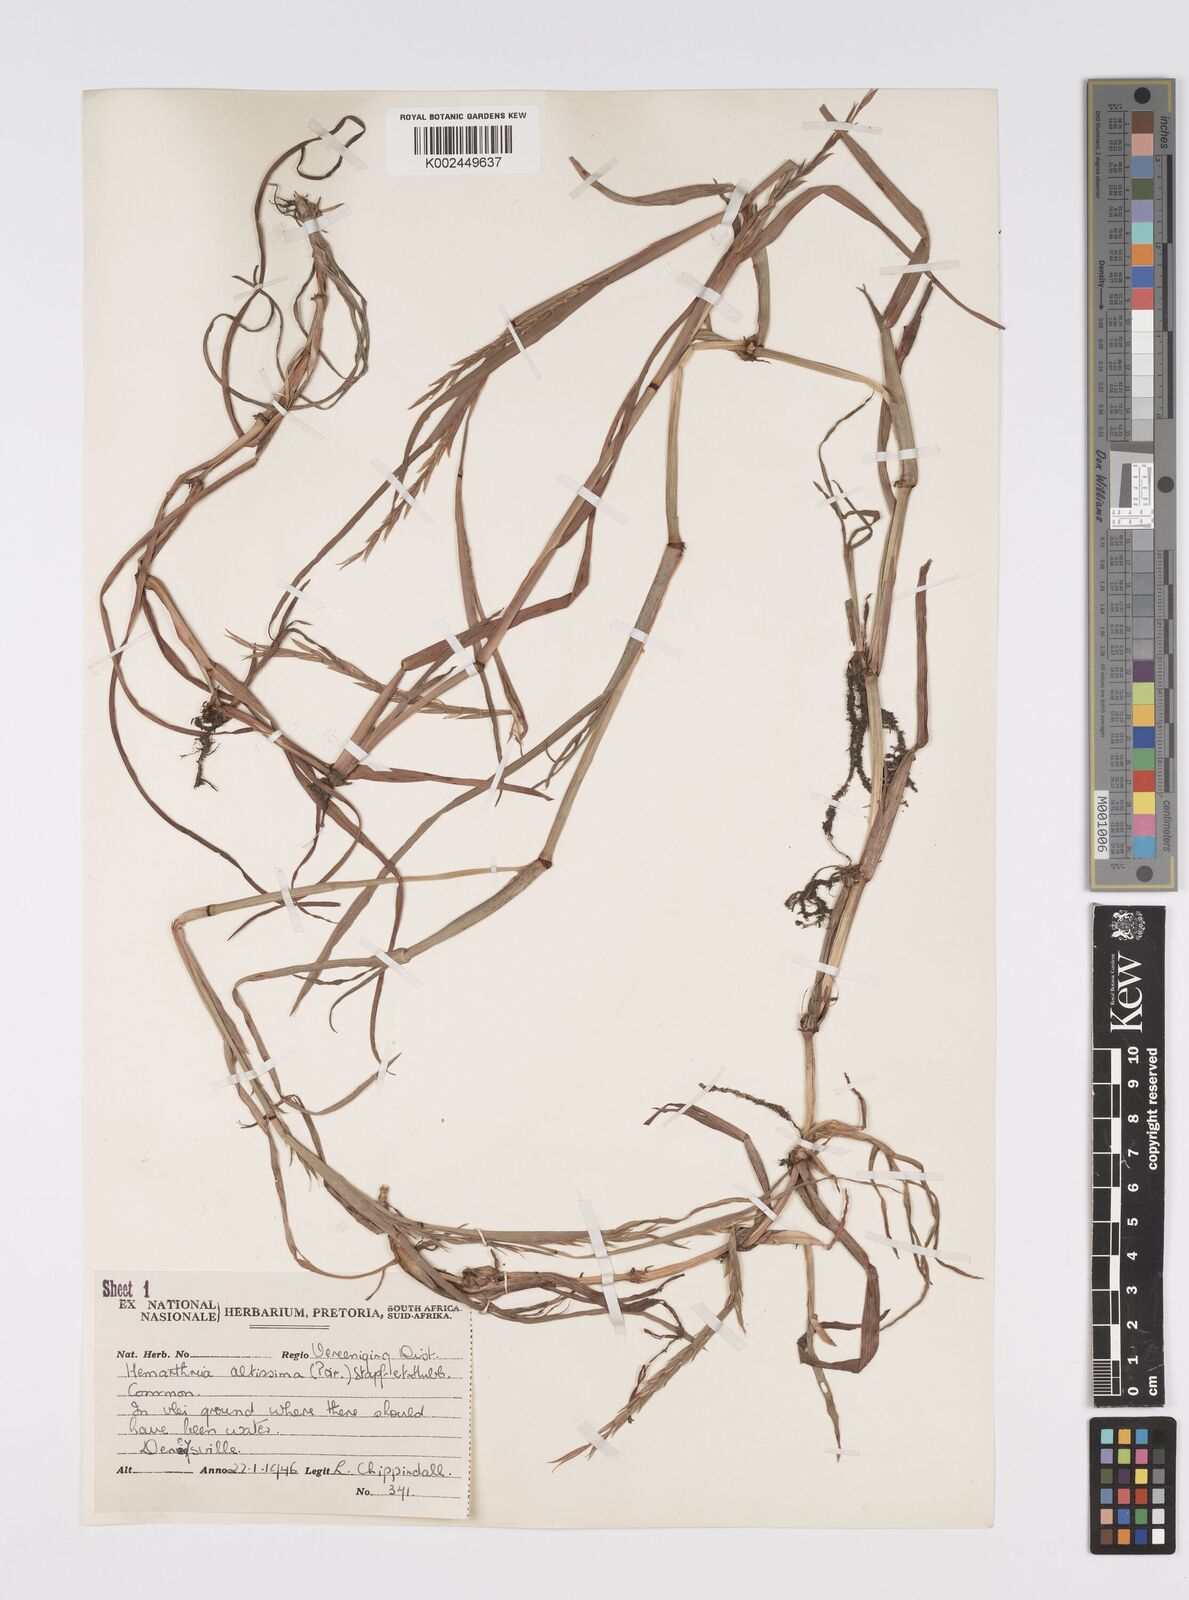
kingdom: Plantae
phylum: Tracheophyta
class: Liliopsida
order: Poales
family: Poaceae
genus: Hemarthria
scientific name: Hemarthria altissima
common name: African jointgrass
